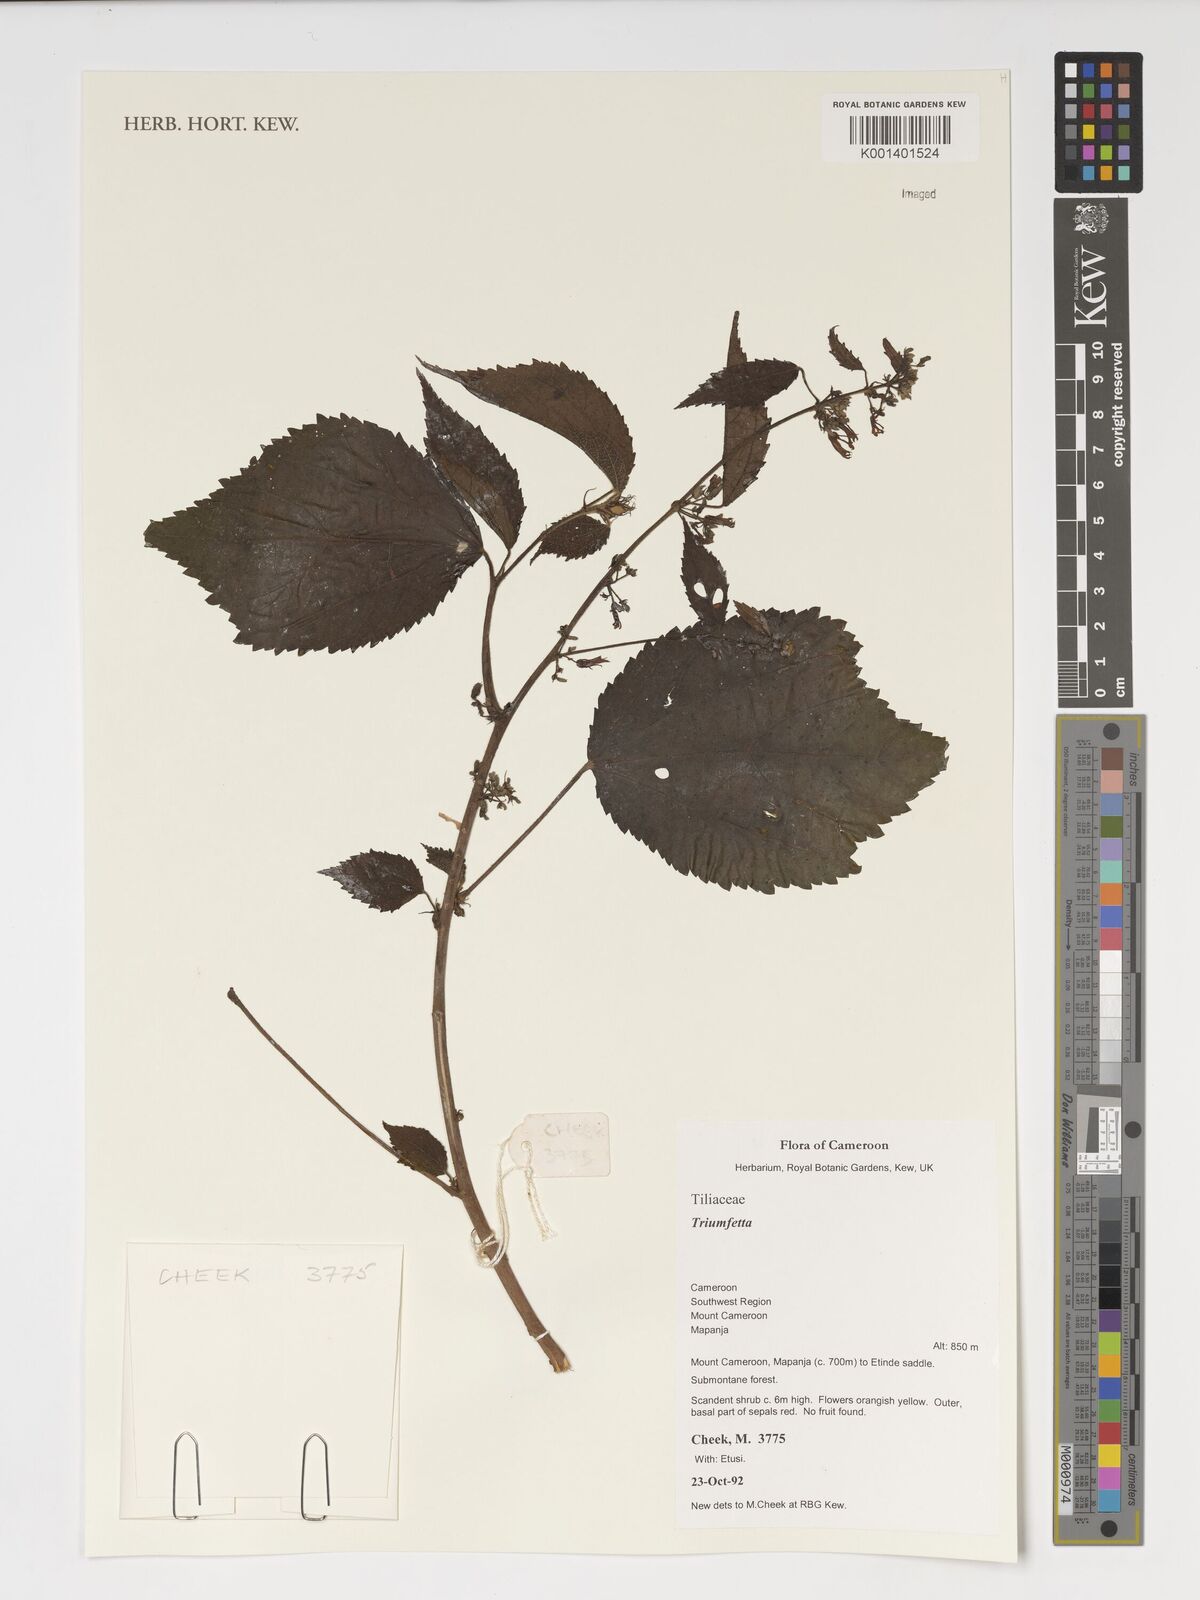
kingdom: Plantae
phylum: Tracheophyta
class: Magnoliopsida
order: Malvales
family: Malvaceae
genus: Triumfetta
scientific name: Triumfetta
